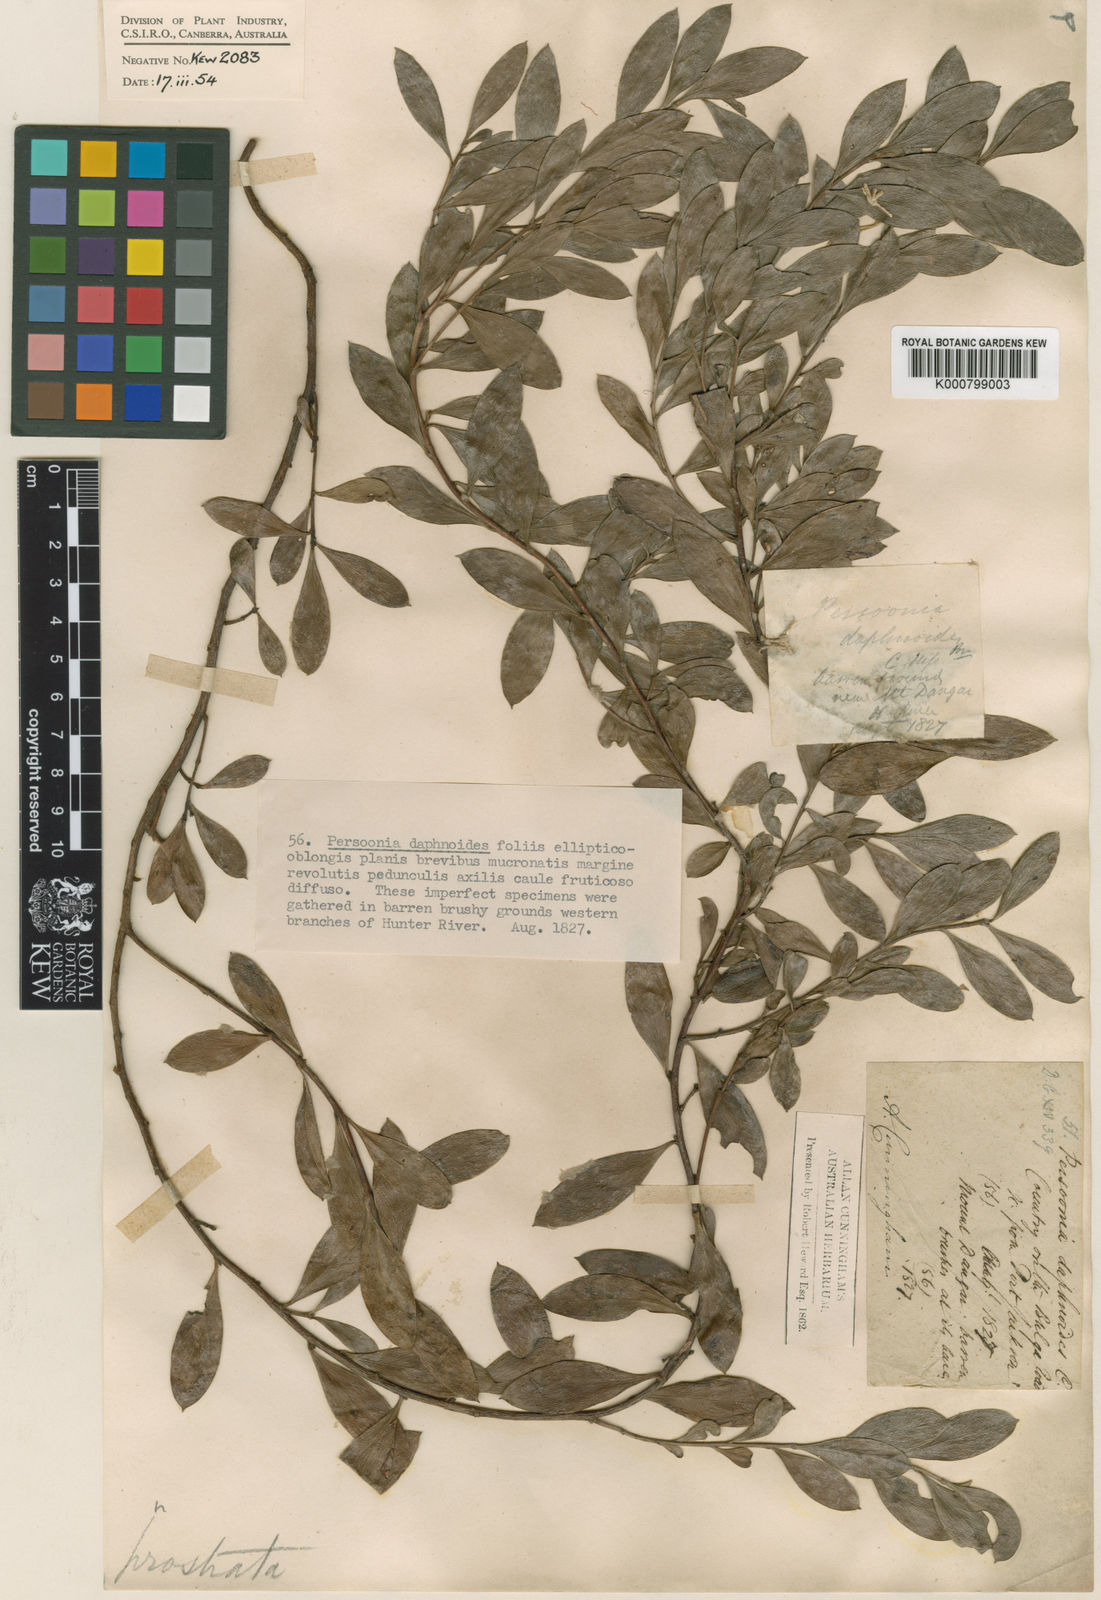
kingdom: Plantae
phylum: Tracheophyta
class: Magnoliopsida
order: Proteales
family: Proteaceae
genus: Persoonia
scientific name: Persoonia daphnoides
